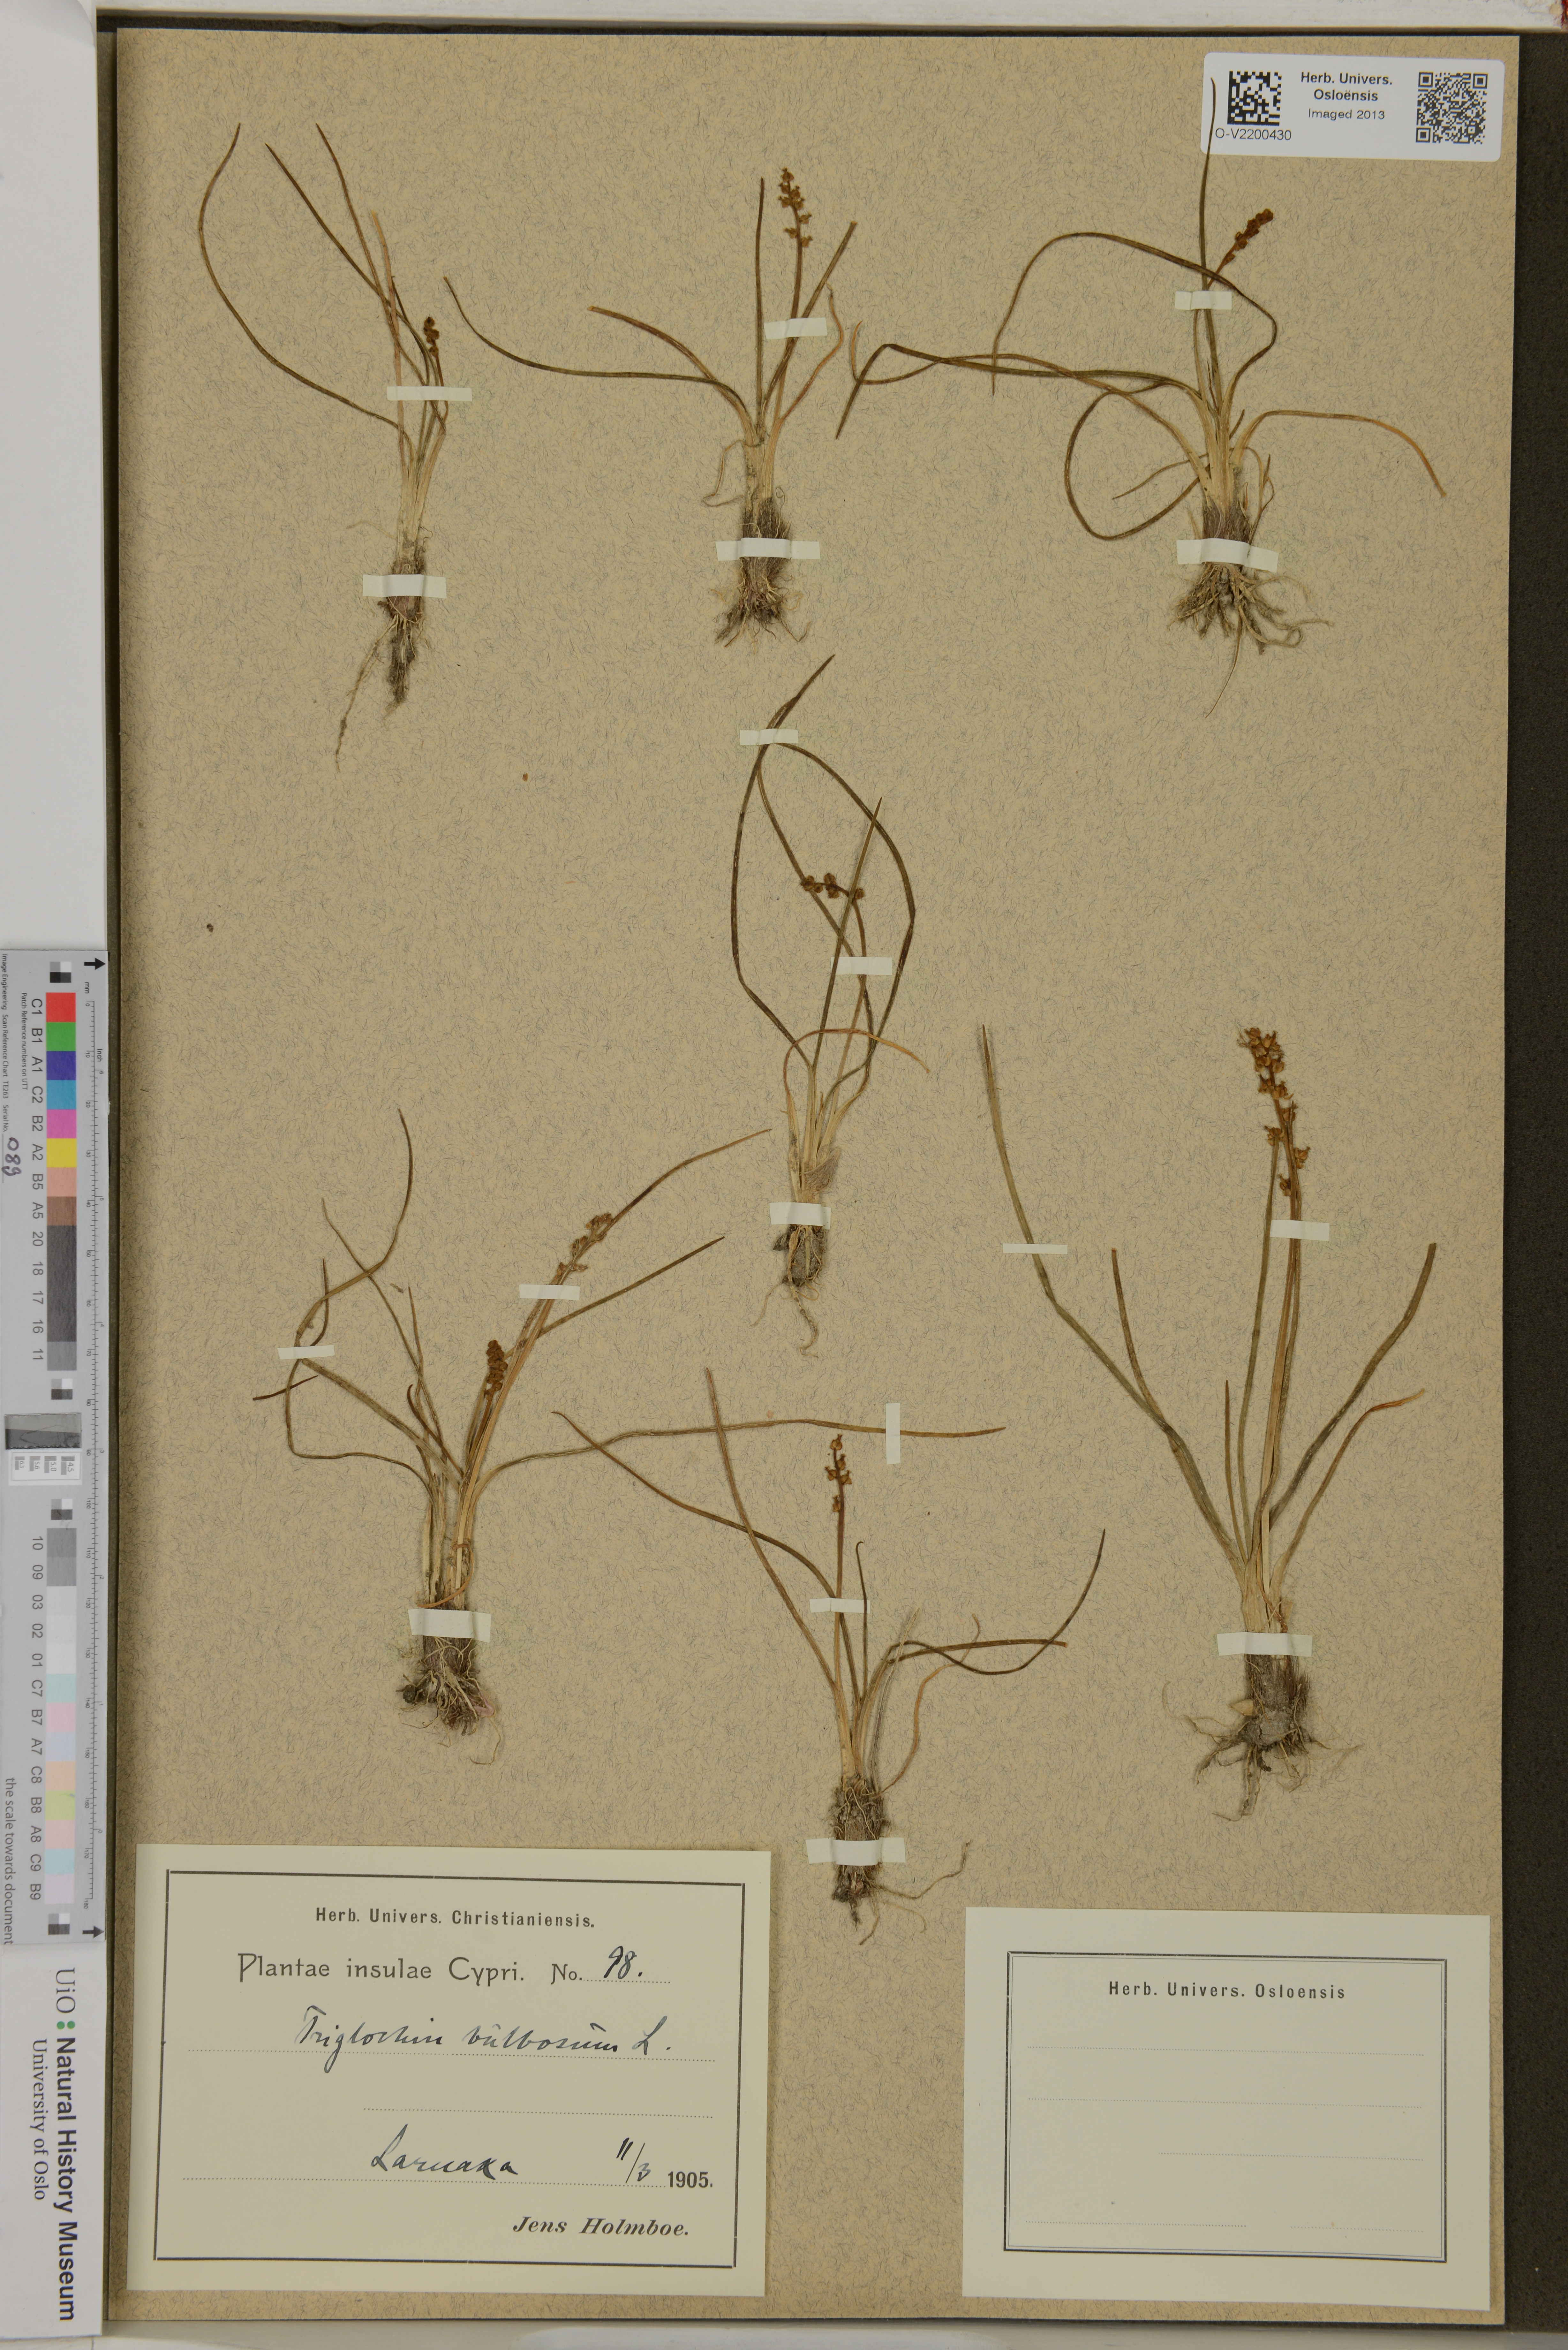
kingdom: Plantae
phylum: Tracheophyta
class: Liliopsida
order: Alismatales
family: Juncaginaceae
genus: Triglochin
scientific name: Triglochin bulbosa
